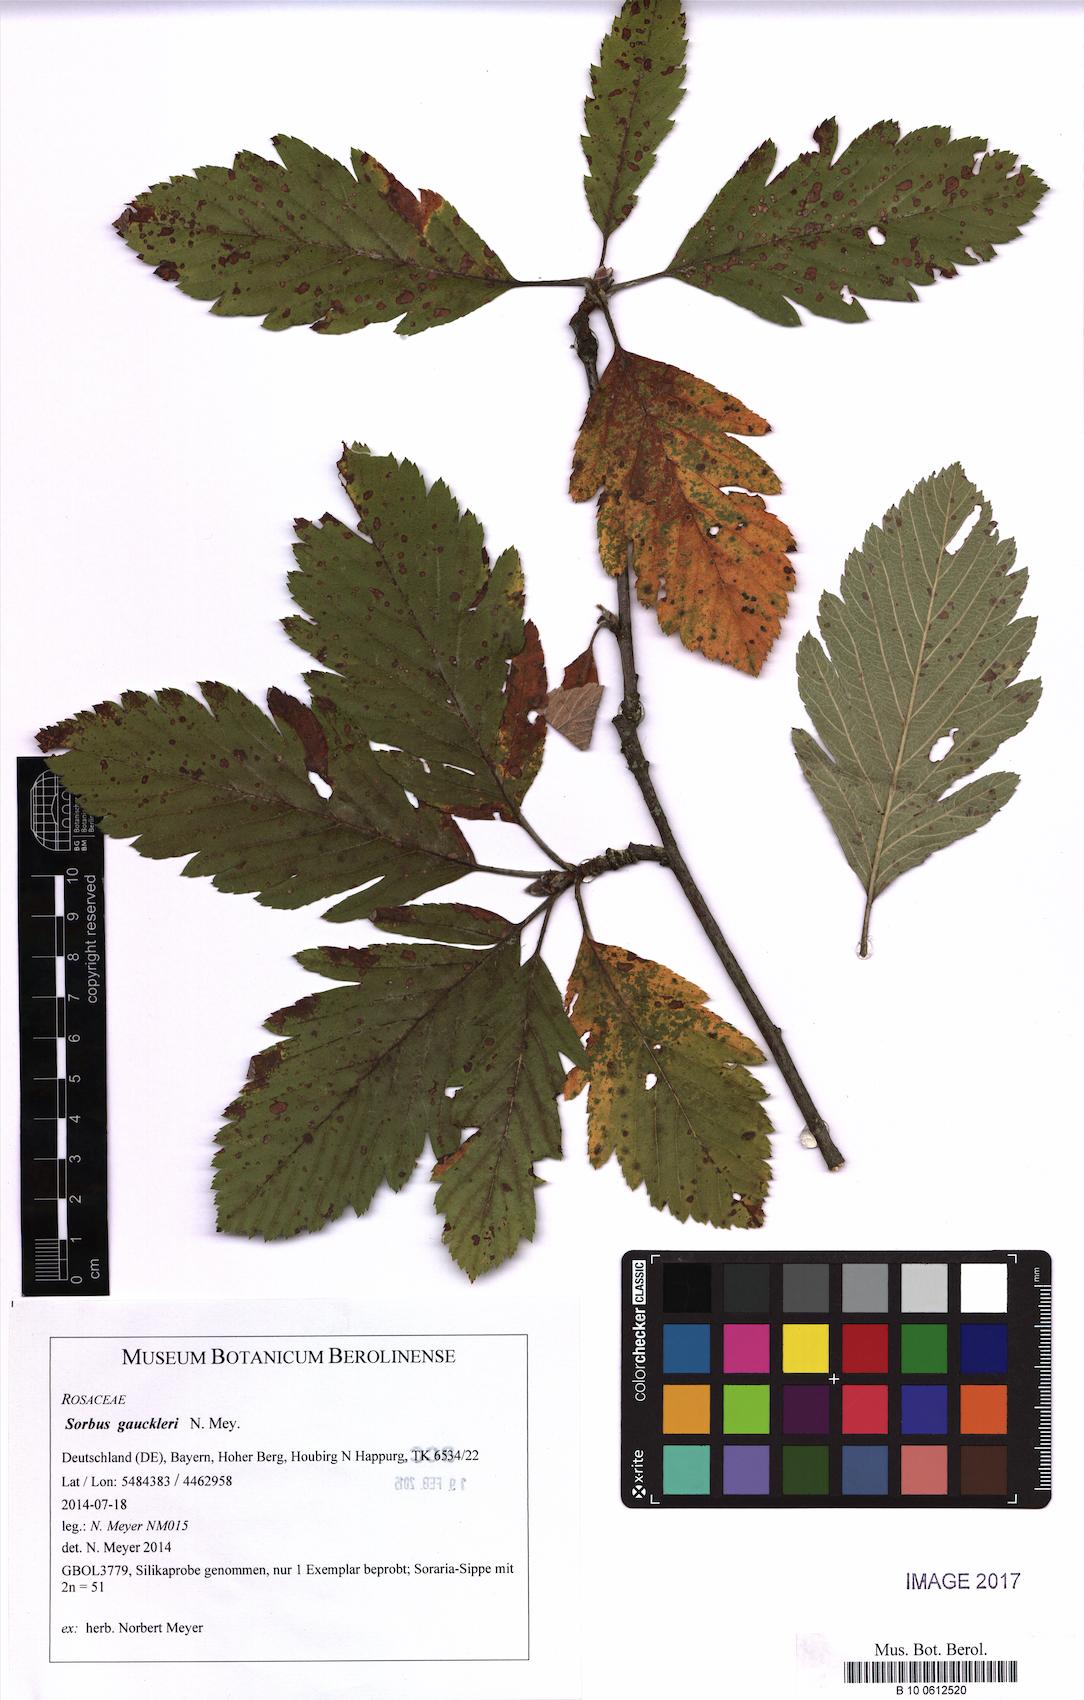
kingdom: Plantae
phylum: Tracheophyta
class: Magnoliopsida
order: Rosales
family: Rosaceae
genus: Hedlundia
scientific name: Hedlundia gauckleri
